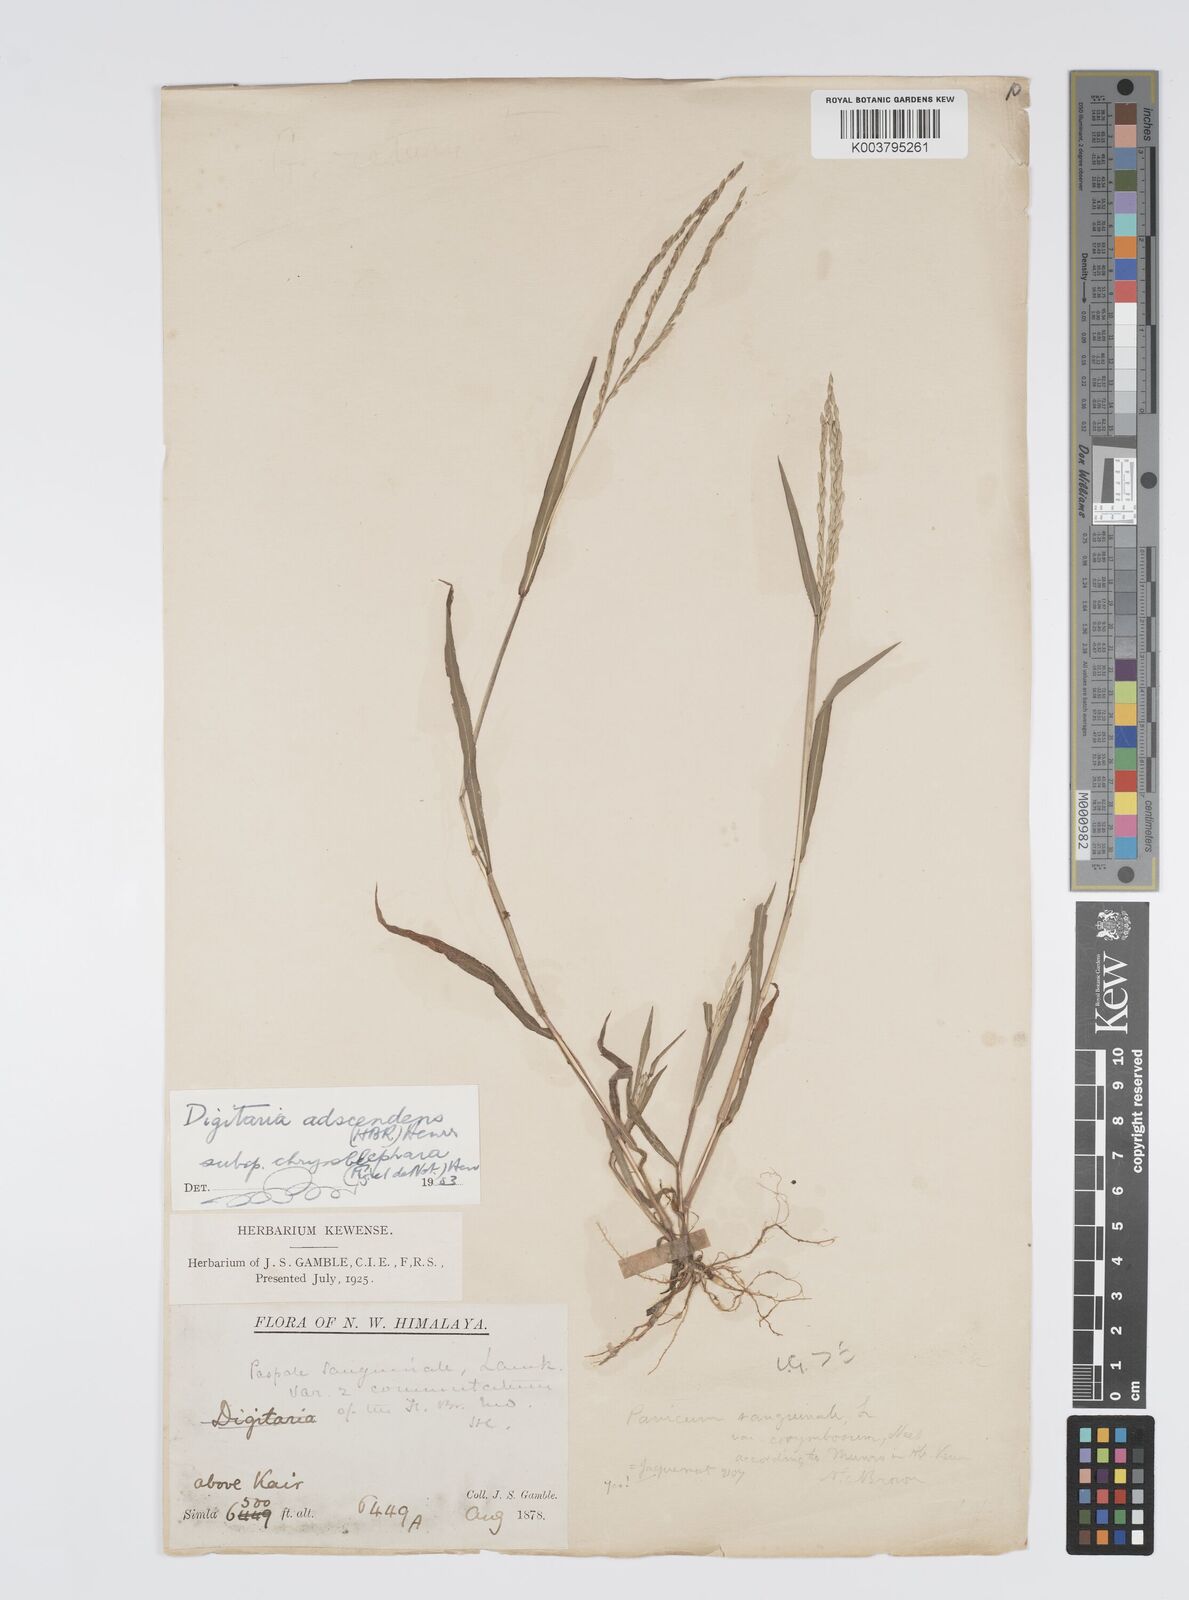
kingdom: Plantae
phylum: Tracheophyta
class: Liliopsida
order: Poales
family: Poaceae
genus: Digitaria
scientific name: Digitaria ciliaris
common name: Tropical finger-grass
